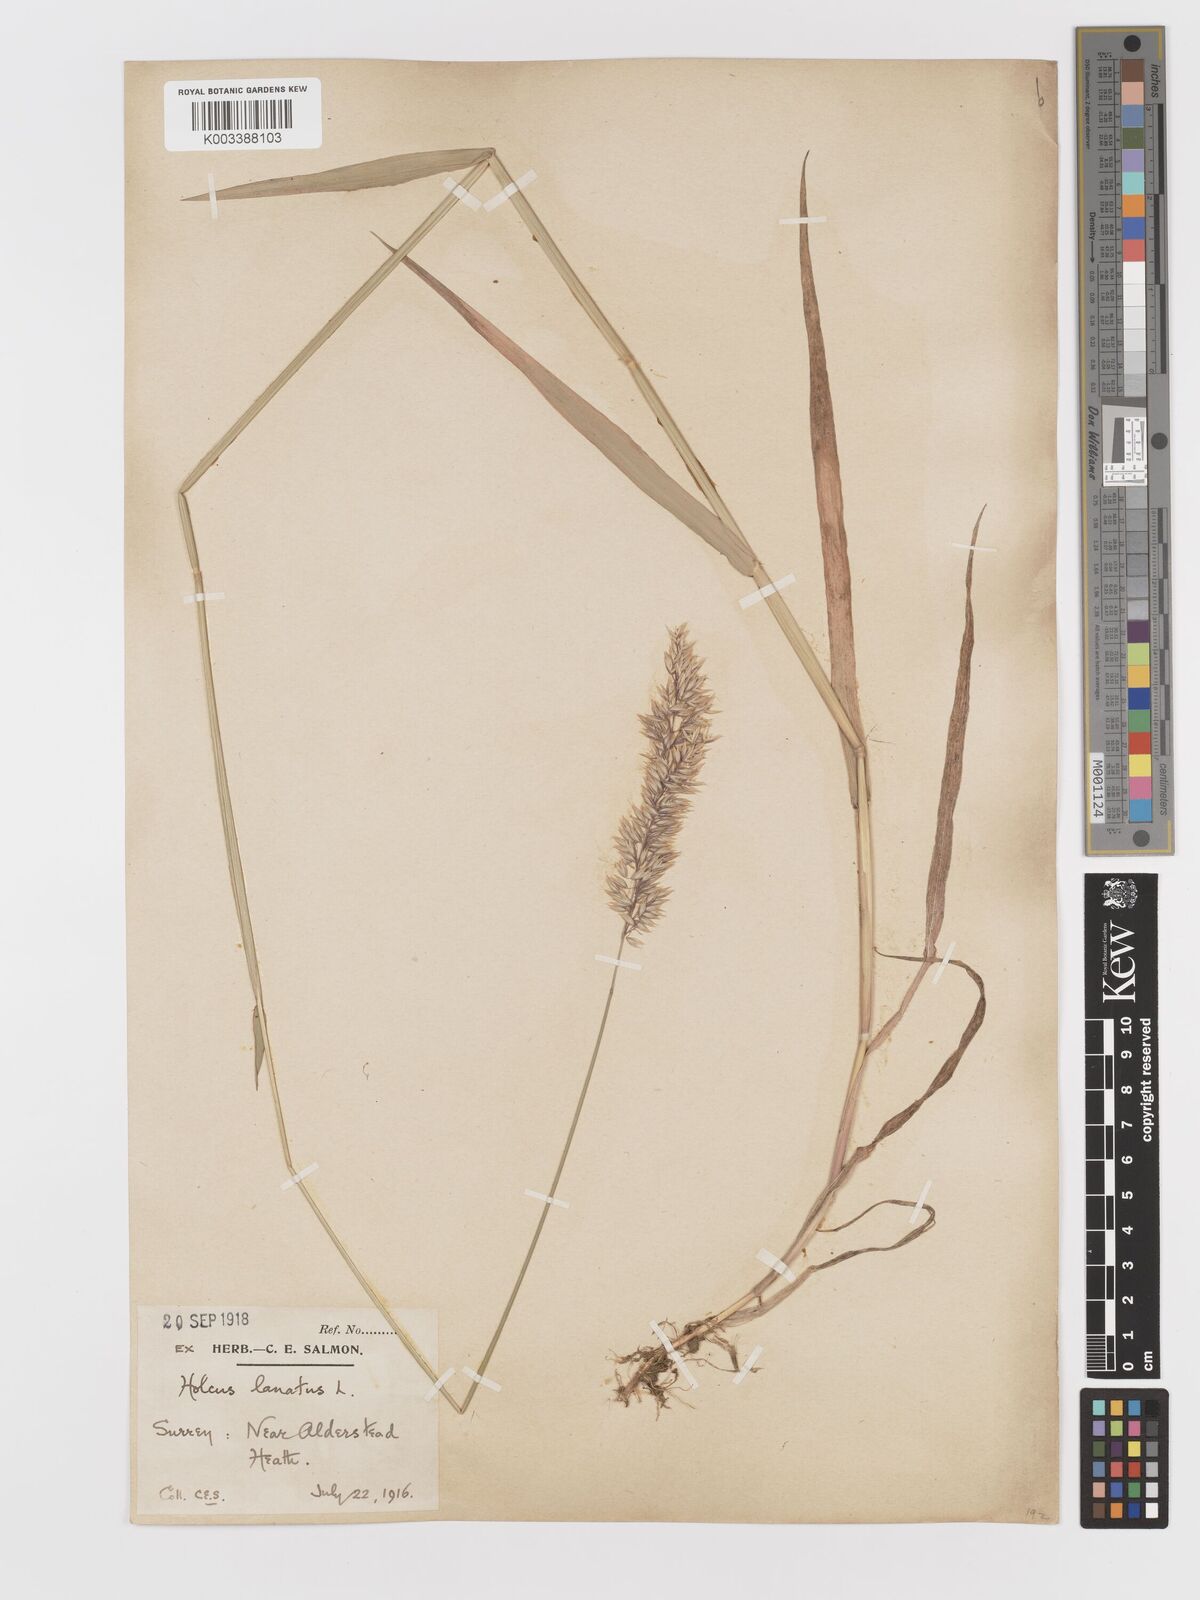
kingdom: Plantae
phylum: Tracheophyta
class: Liliopsida
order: Poales
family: Poaceae
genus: Holcus
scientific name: Holcus mollis
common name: Creeping velvetgrass
